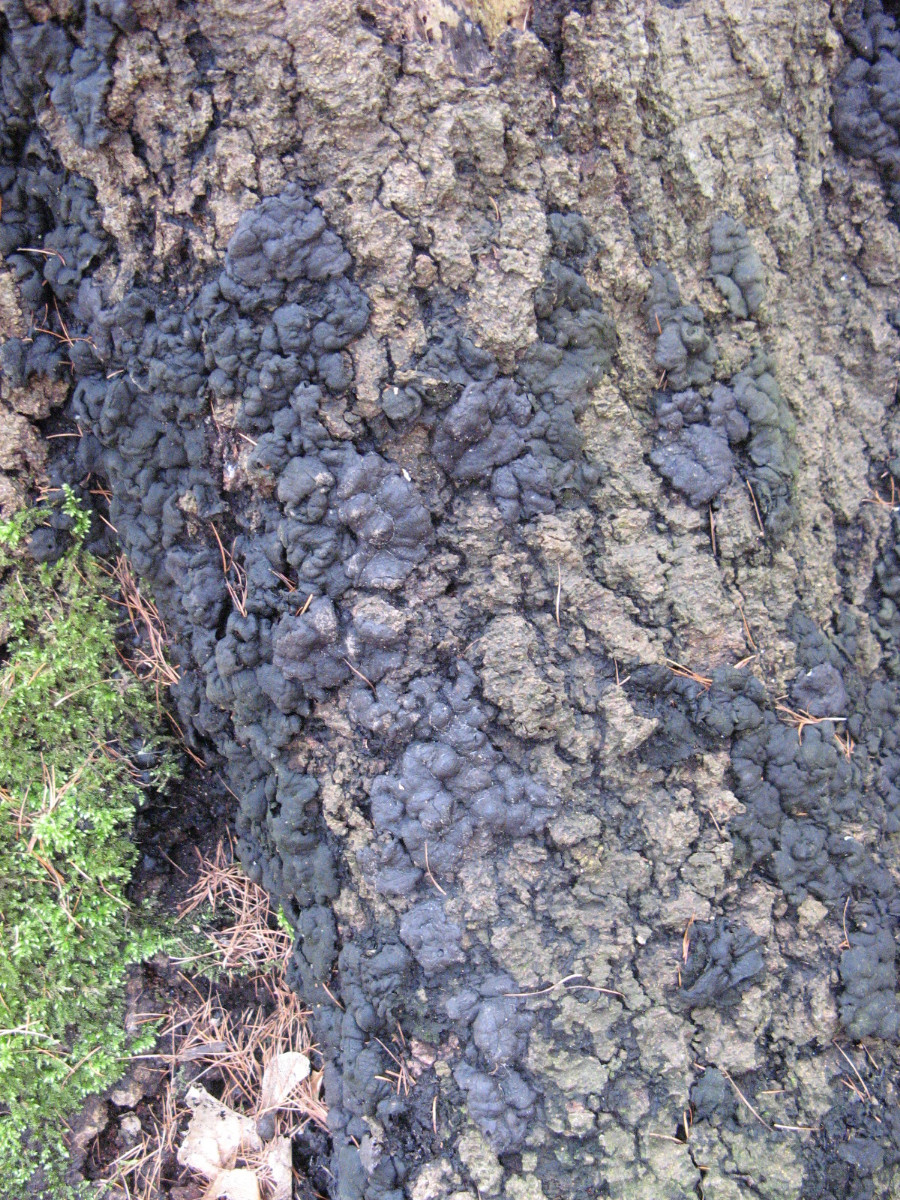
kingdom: Fungi
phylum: Ascomycota
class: Sordariomycetes
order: Xylariales
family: Xylariaceae
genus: Kretzschmaria
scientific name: Kretzschmaria deusta
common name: stor kulsvamp
